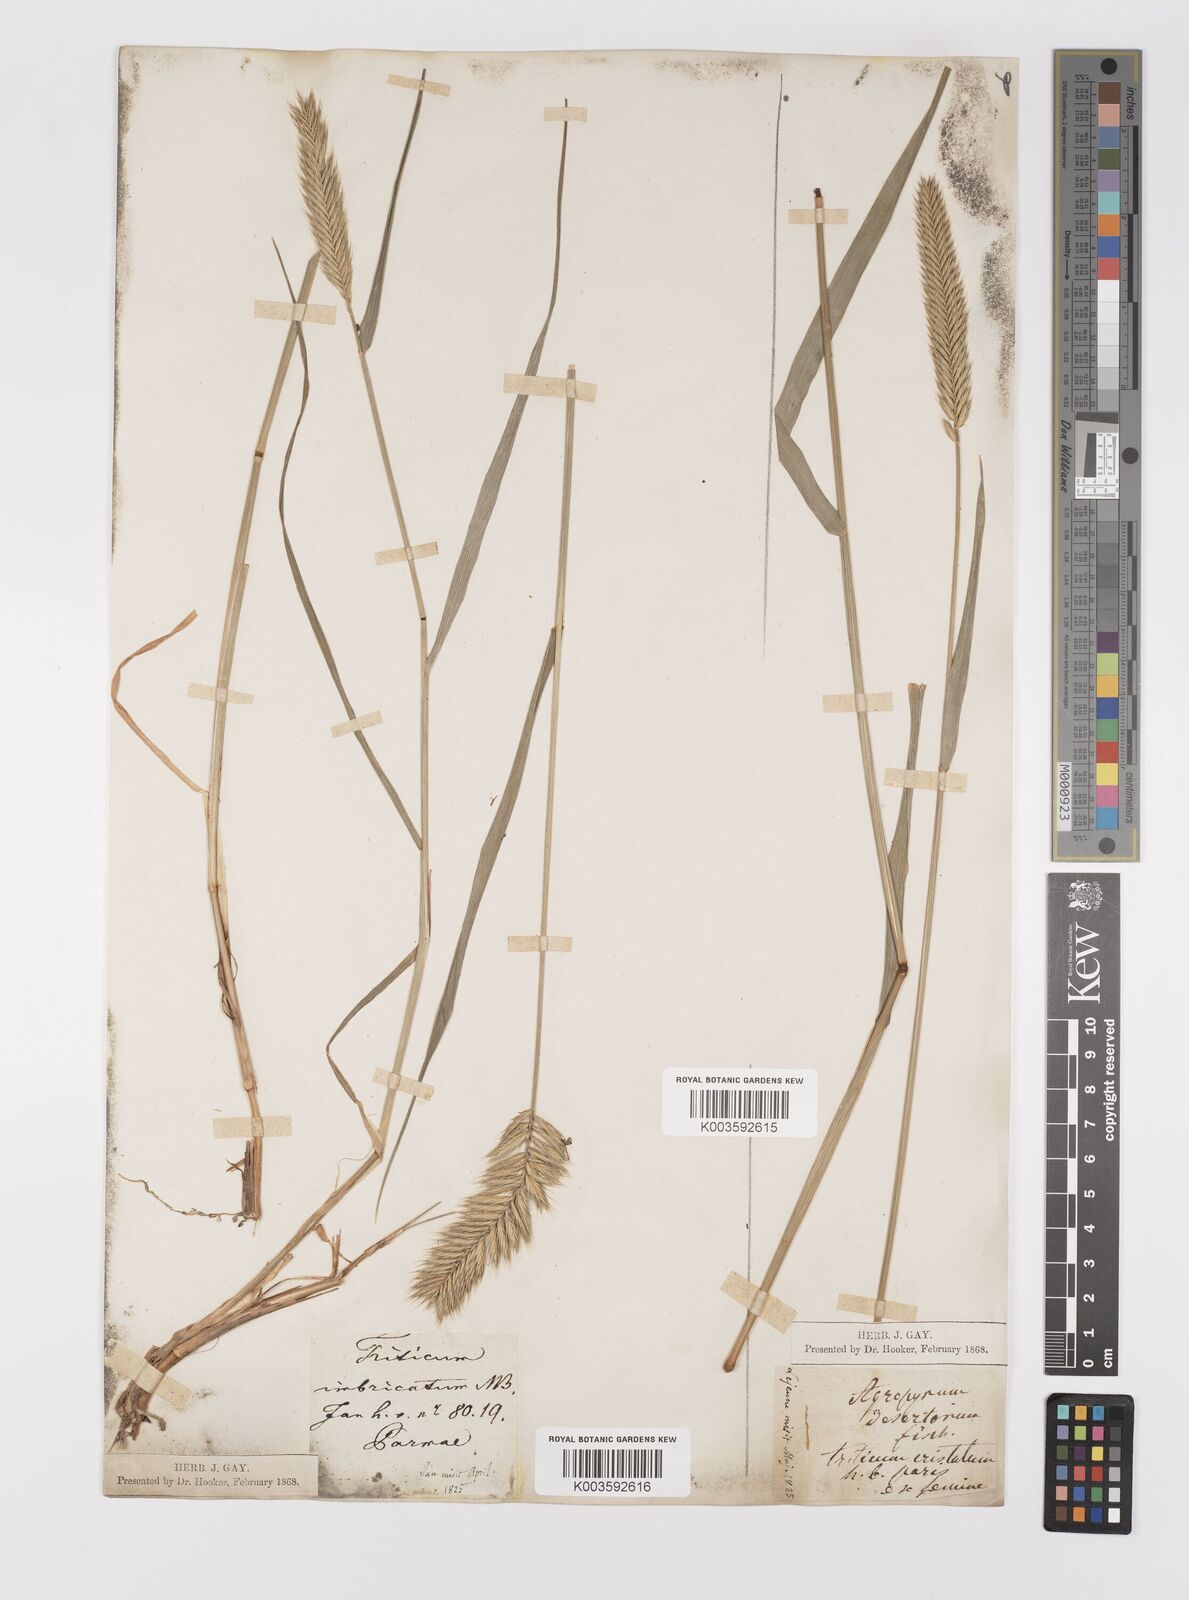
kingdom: Plantae
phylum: Tracheophyta
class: Liliopsida
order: Poales
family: Poaceae
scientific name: Poaceae
